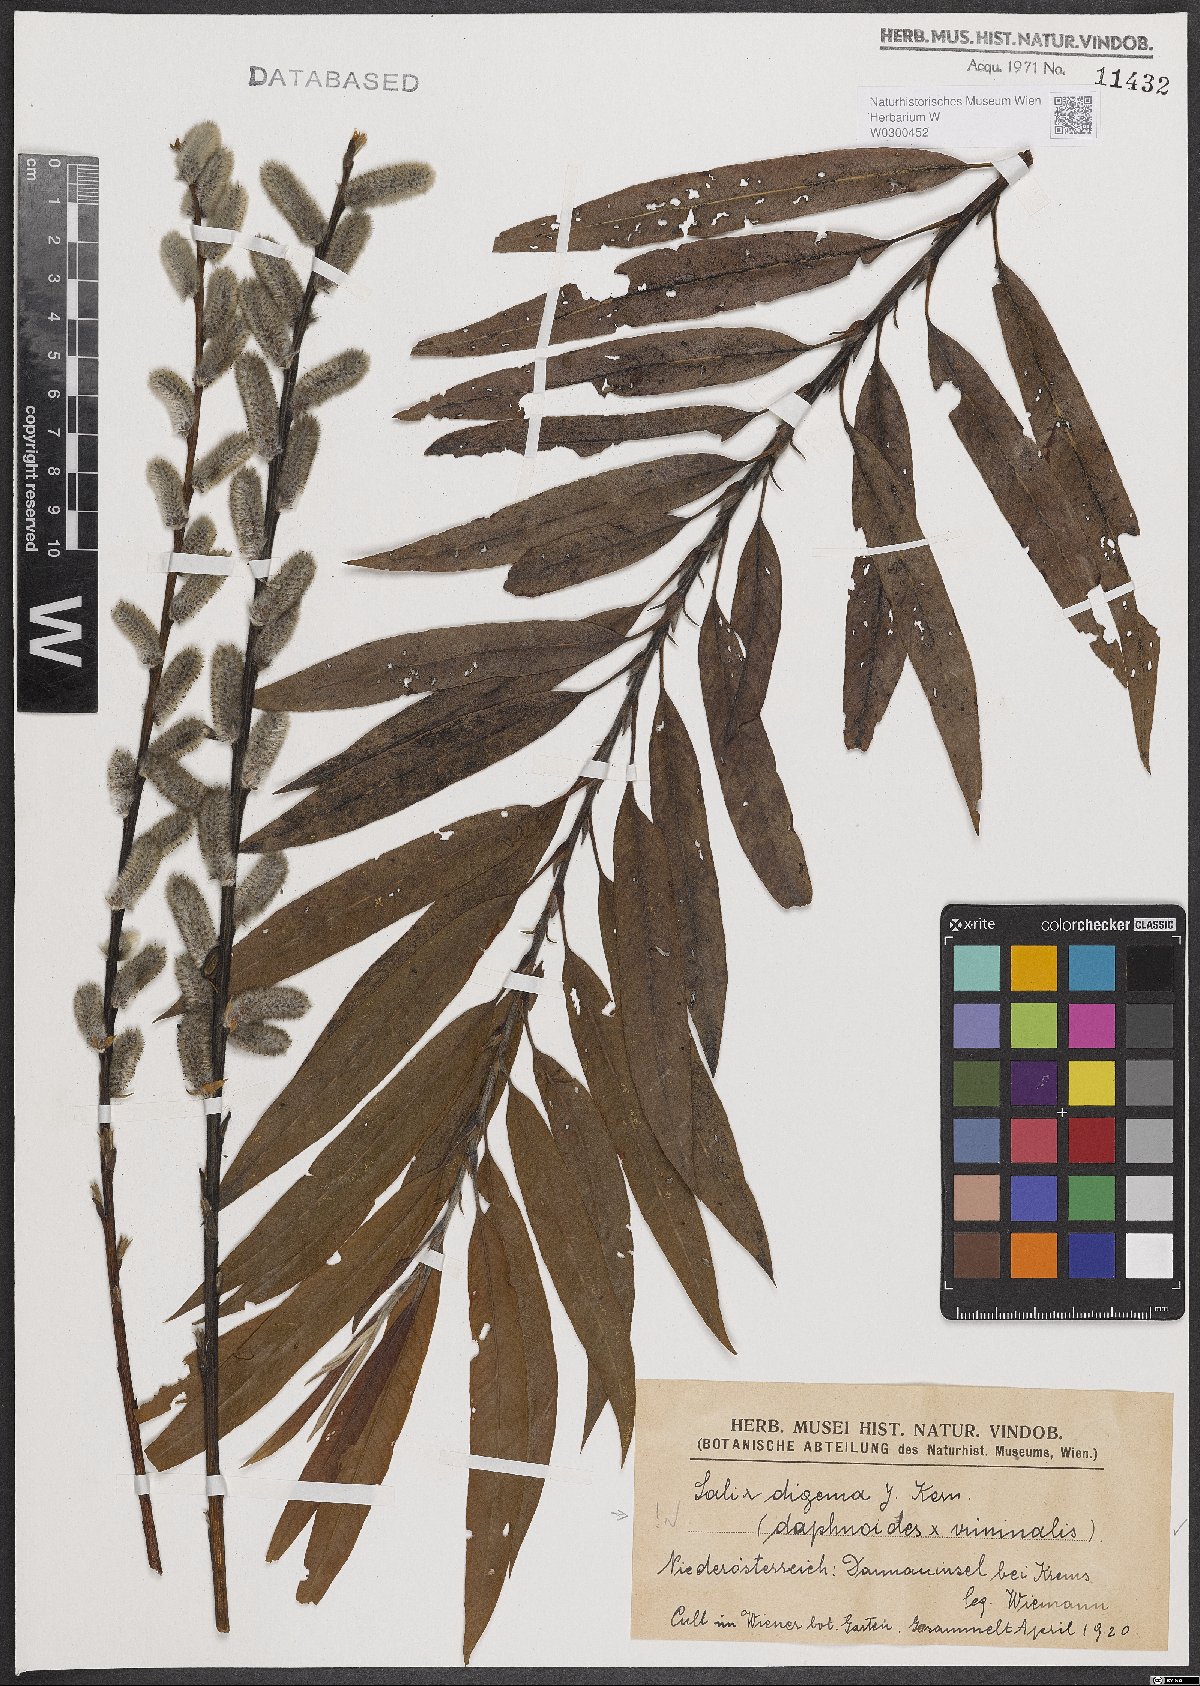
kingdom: Plantae
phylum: Tracheophyta
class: Magnoliopsida
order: Malpighiales
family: Salicaceae
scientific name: Salicaceae
